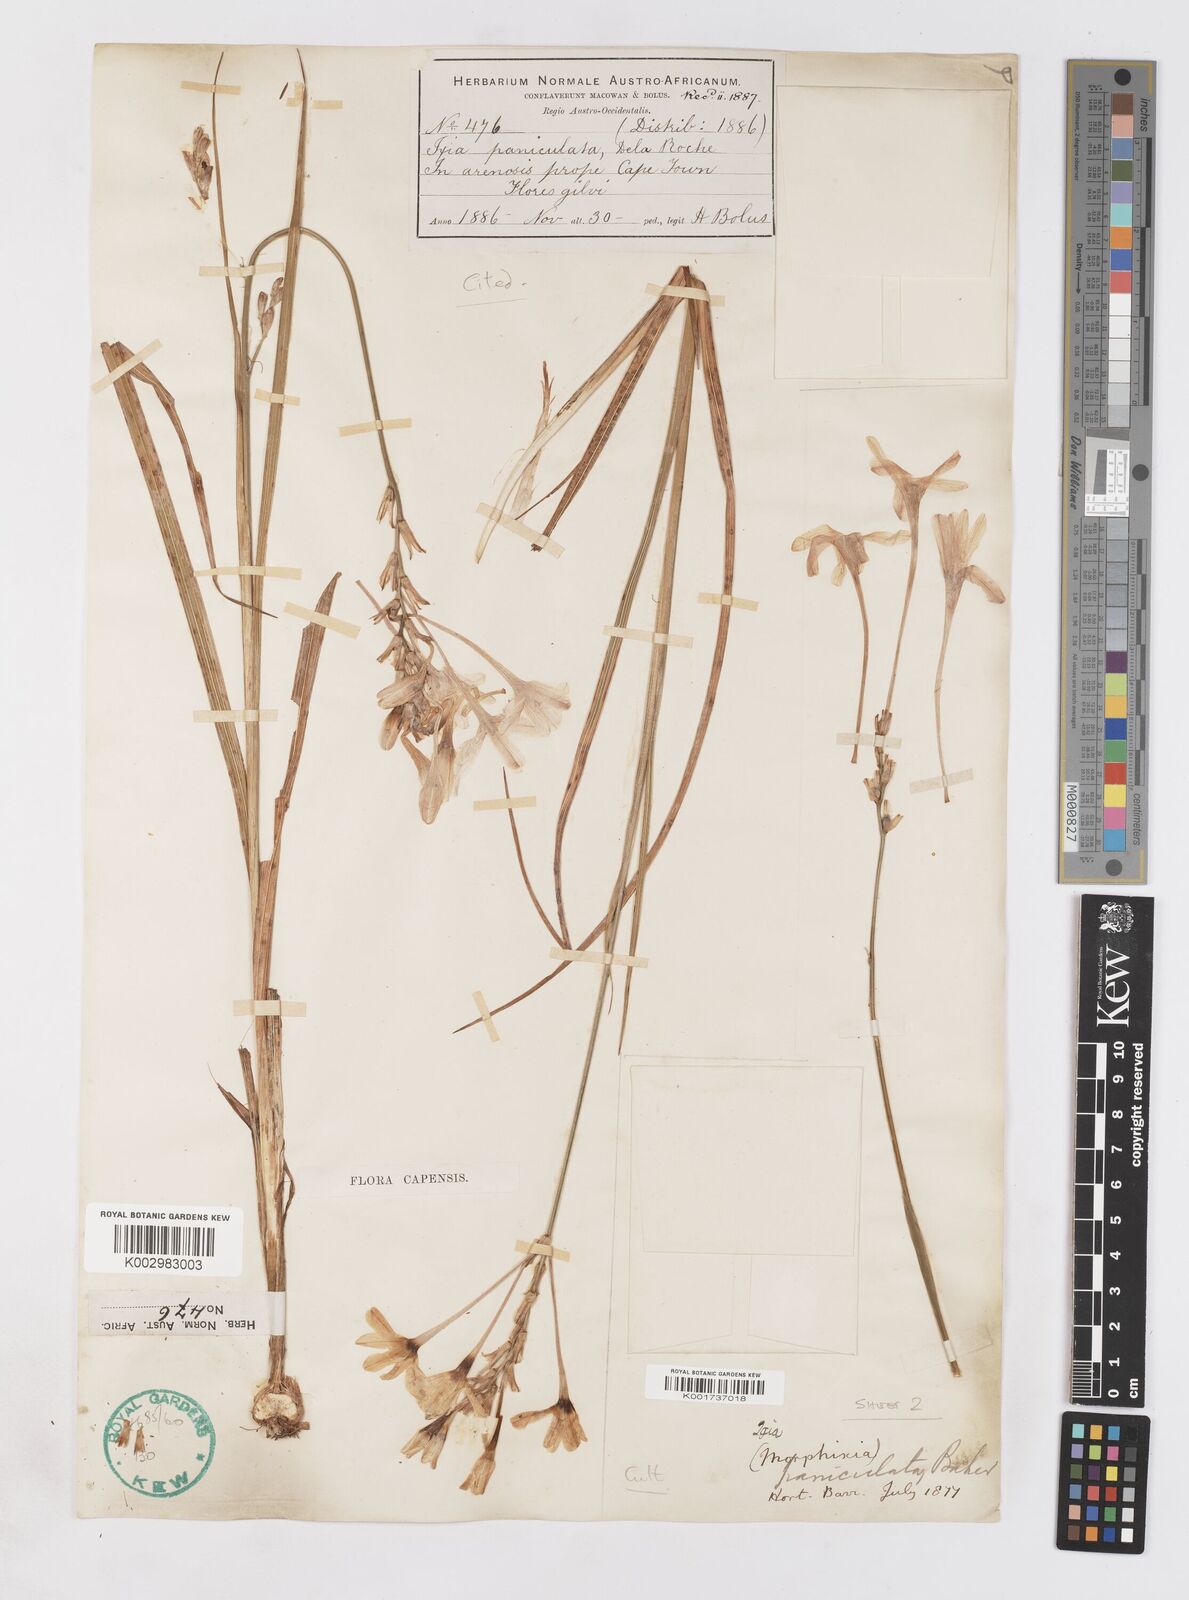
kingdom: Plantae
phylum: Tracheophyta
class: Liliopsida
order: Asparagales
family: Iridaceae
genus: Ixia
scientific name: Ixia paniculata
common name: Tubular corn-lily
